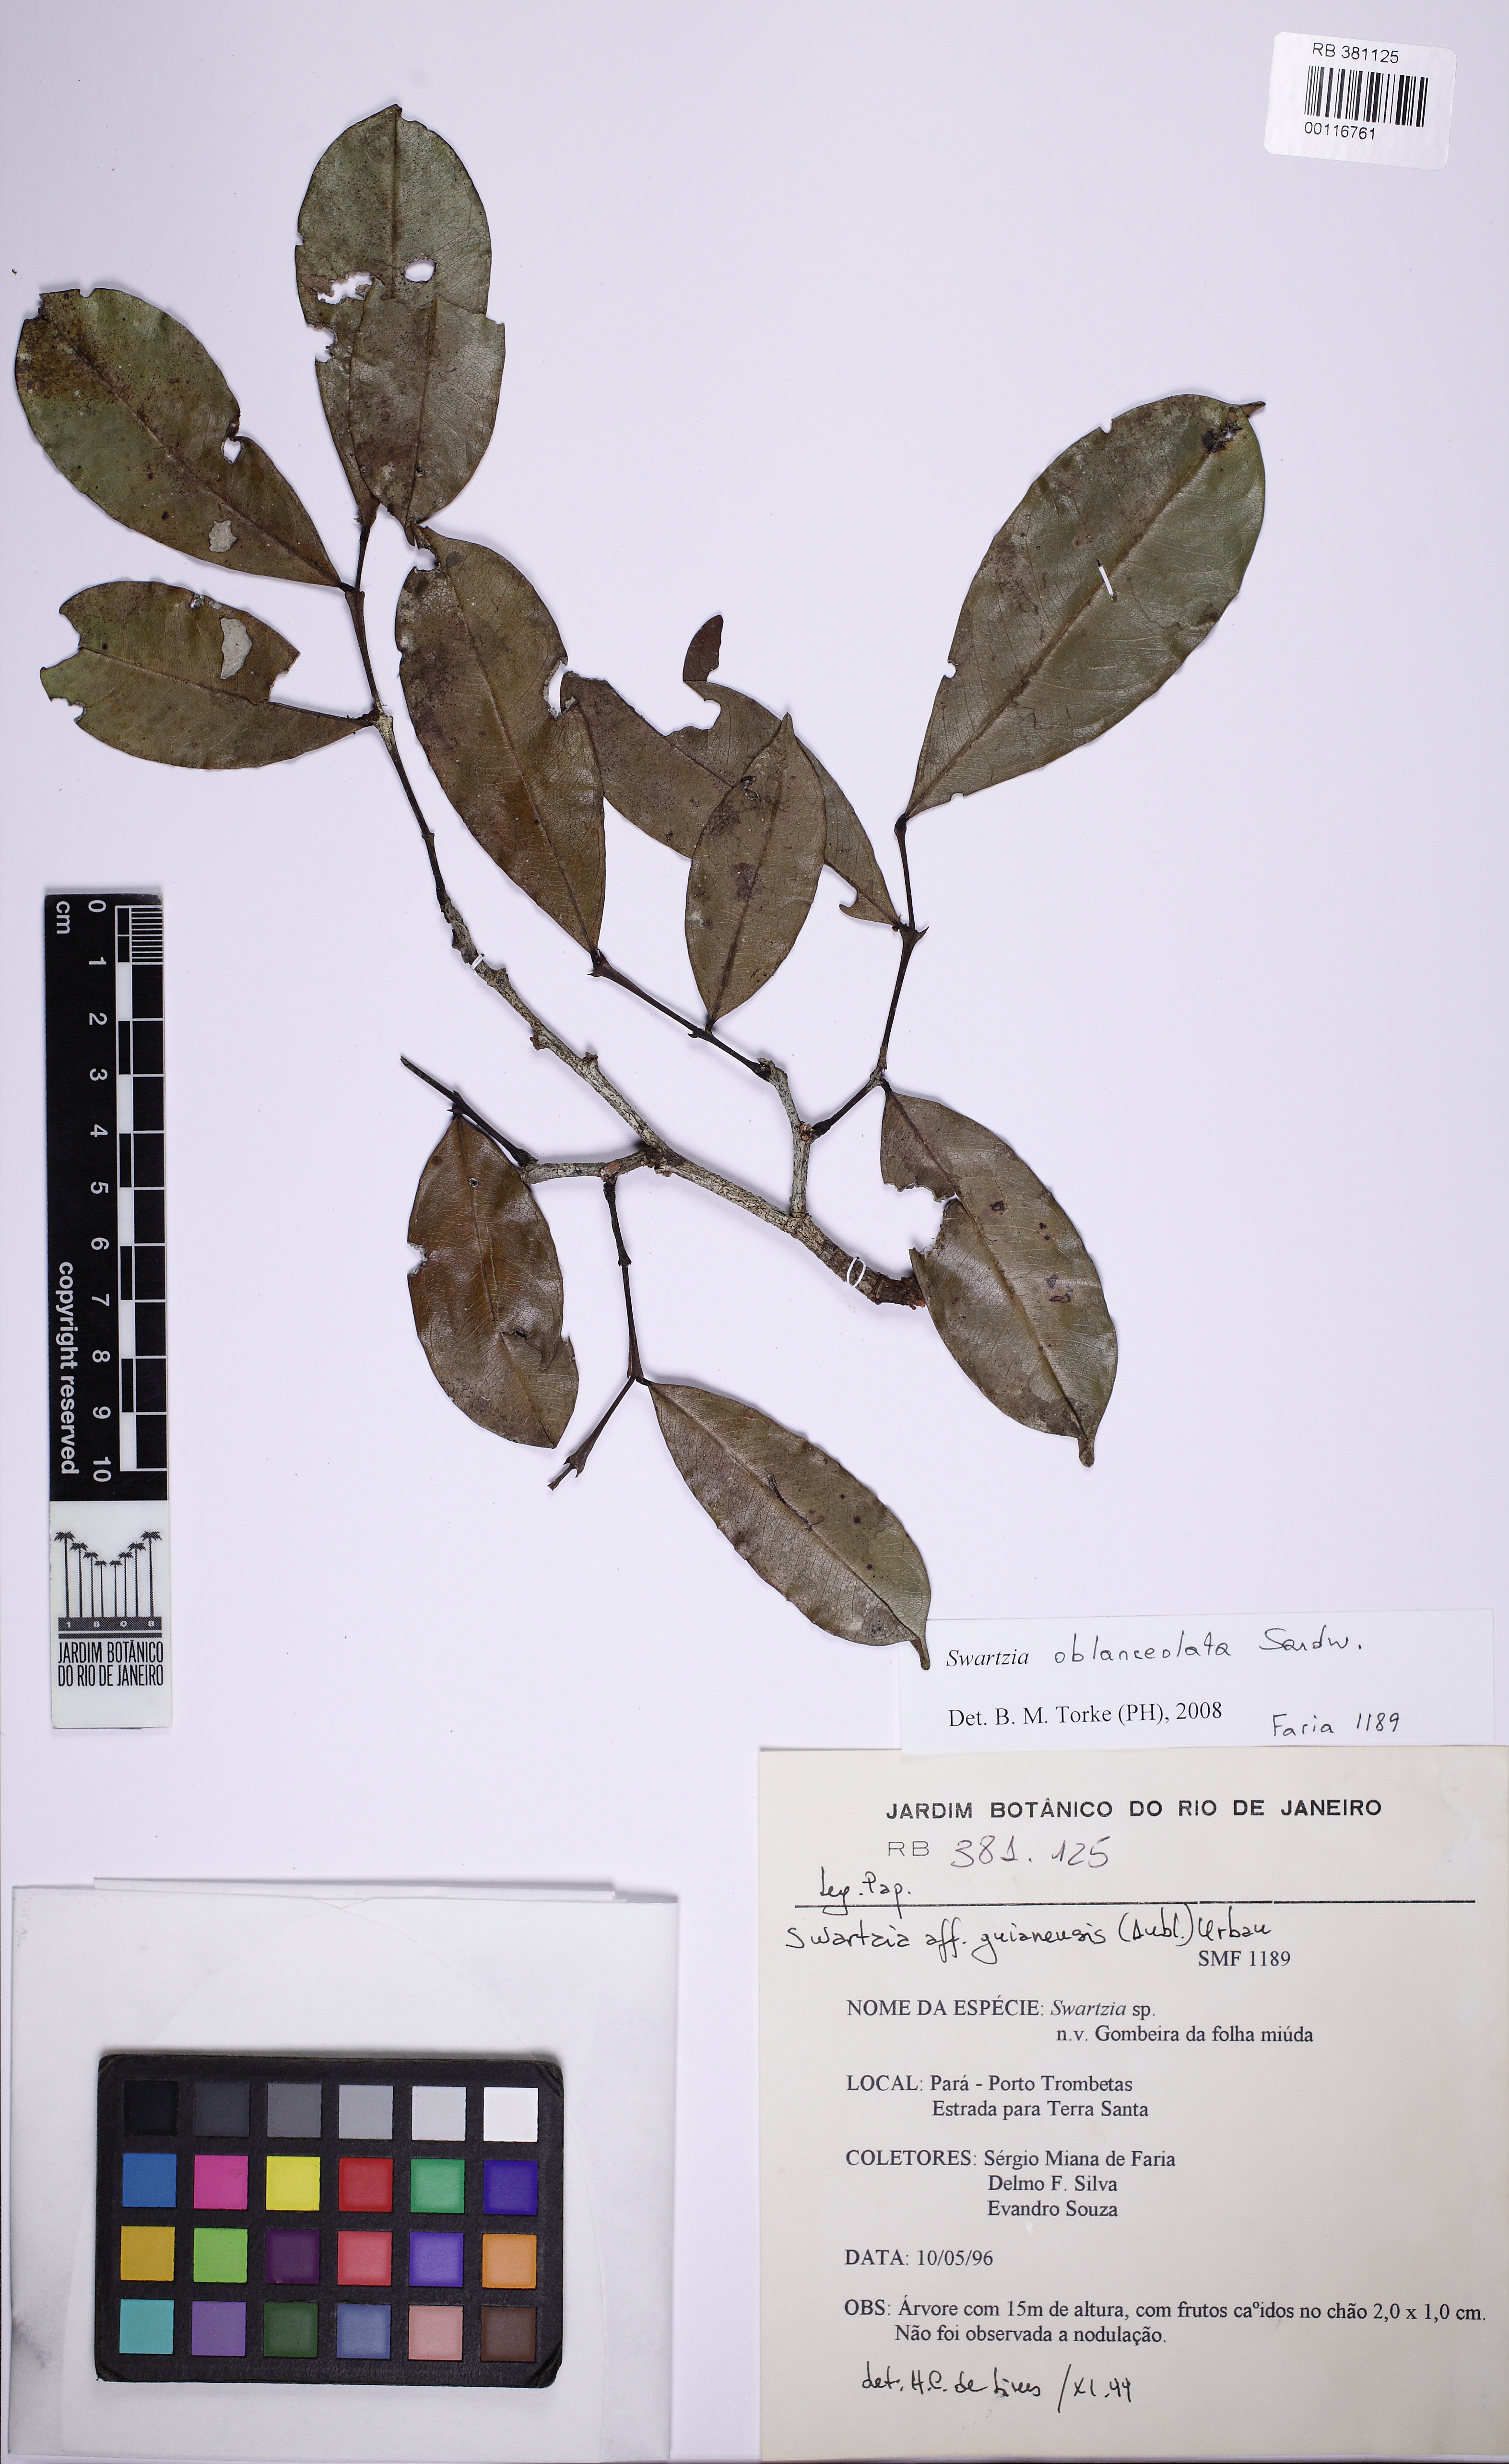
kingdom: Plantae
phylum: Tracheophyta
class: Magnoliopsida
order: Fabales
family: Fabaceae
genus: Swartzia
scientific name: Swartzia oblanceolata
